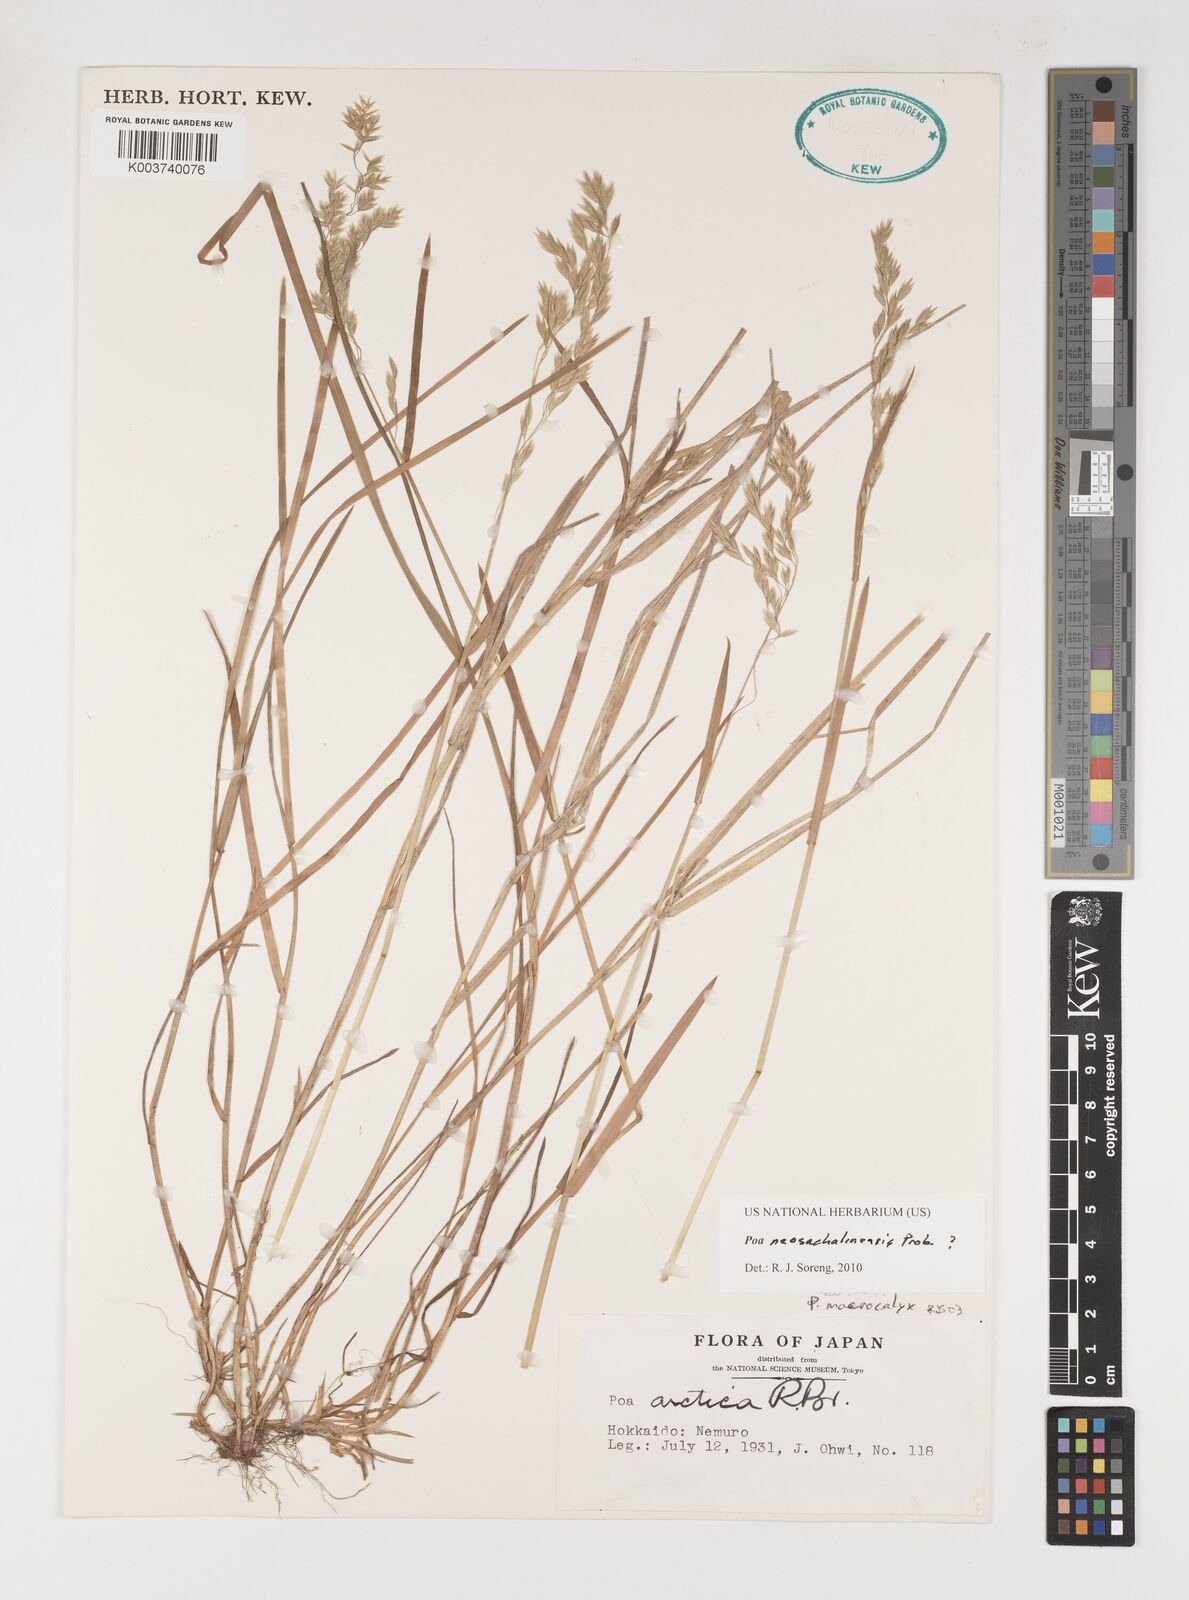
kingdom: Plantae
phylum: Tracheophyta
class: Liliopsida
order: Poales
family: Poaceae
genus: Poa
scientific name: Poa finitima
